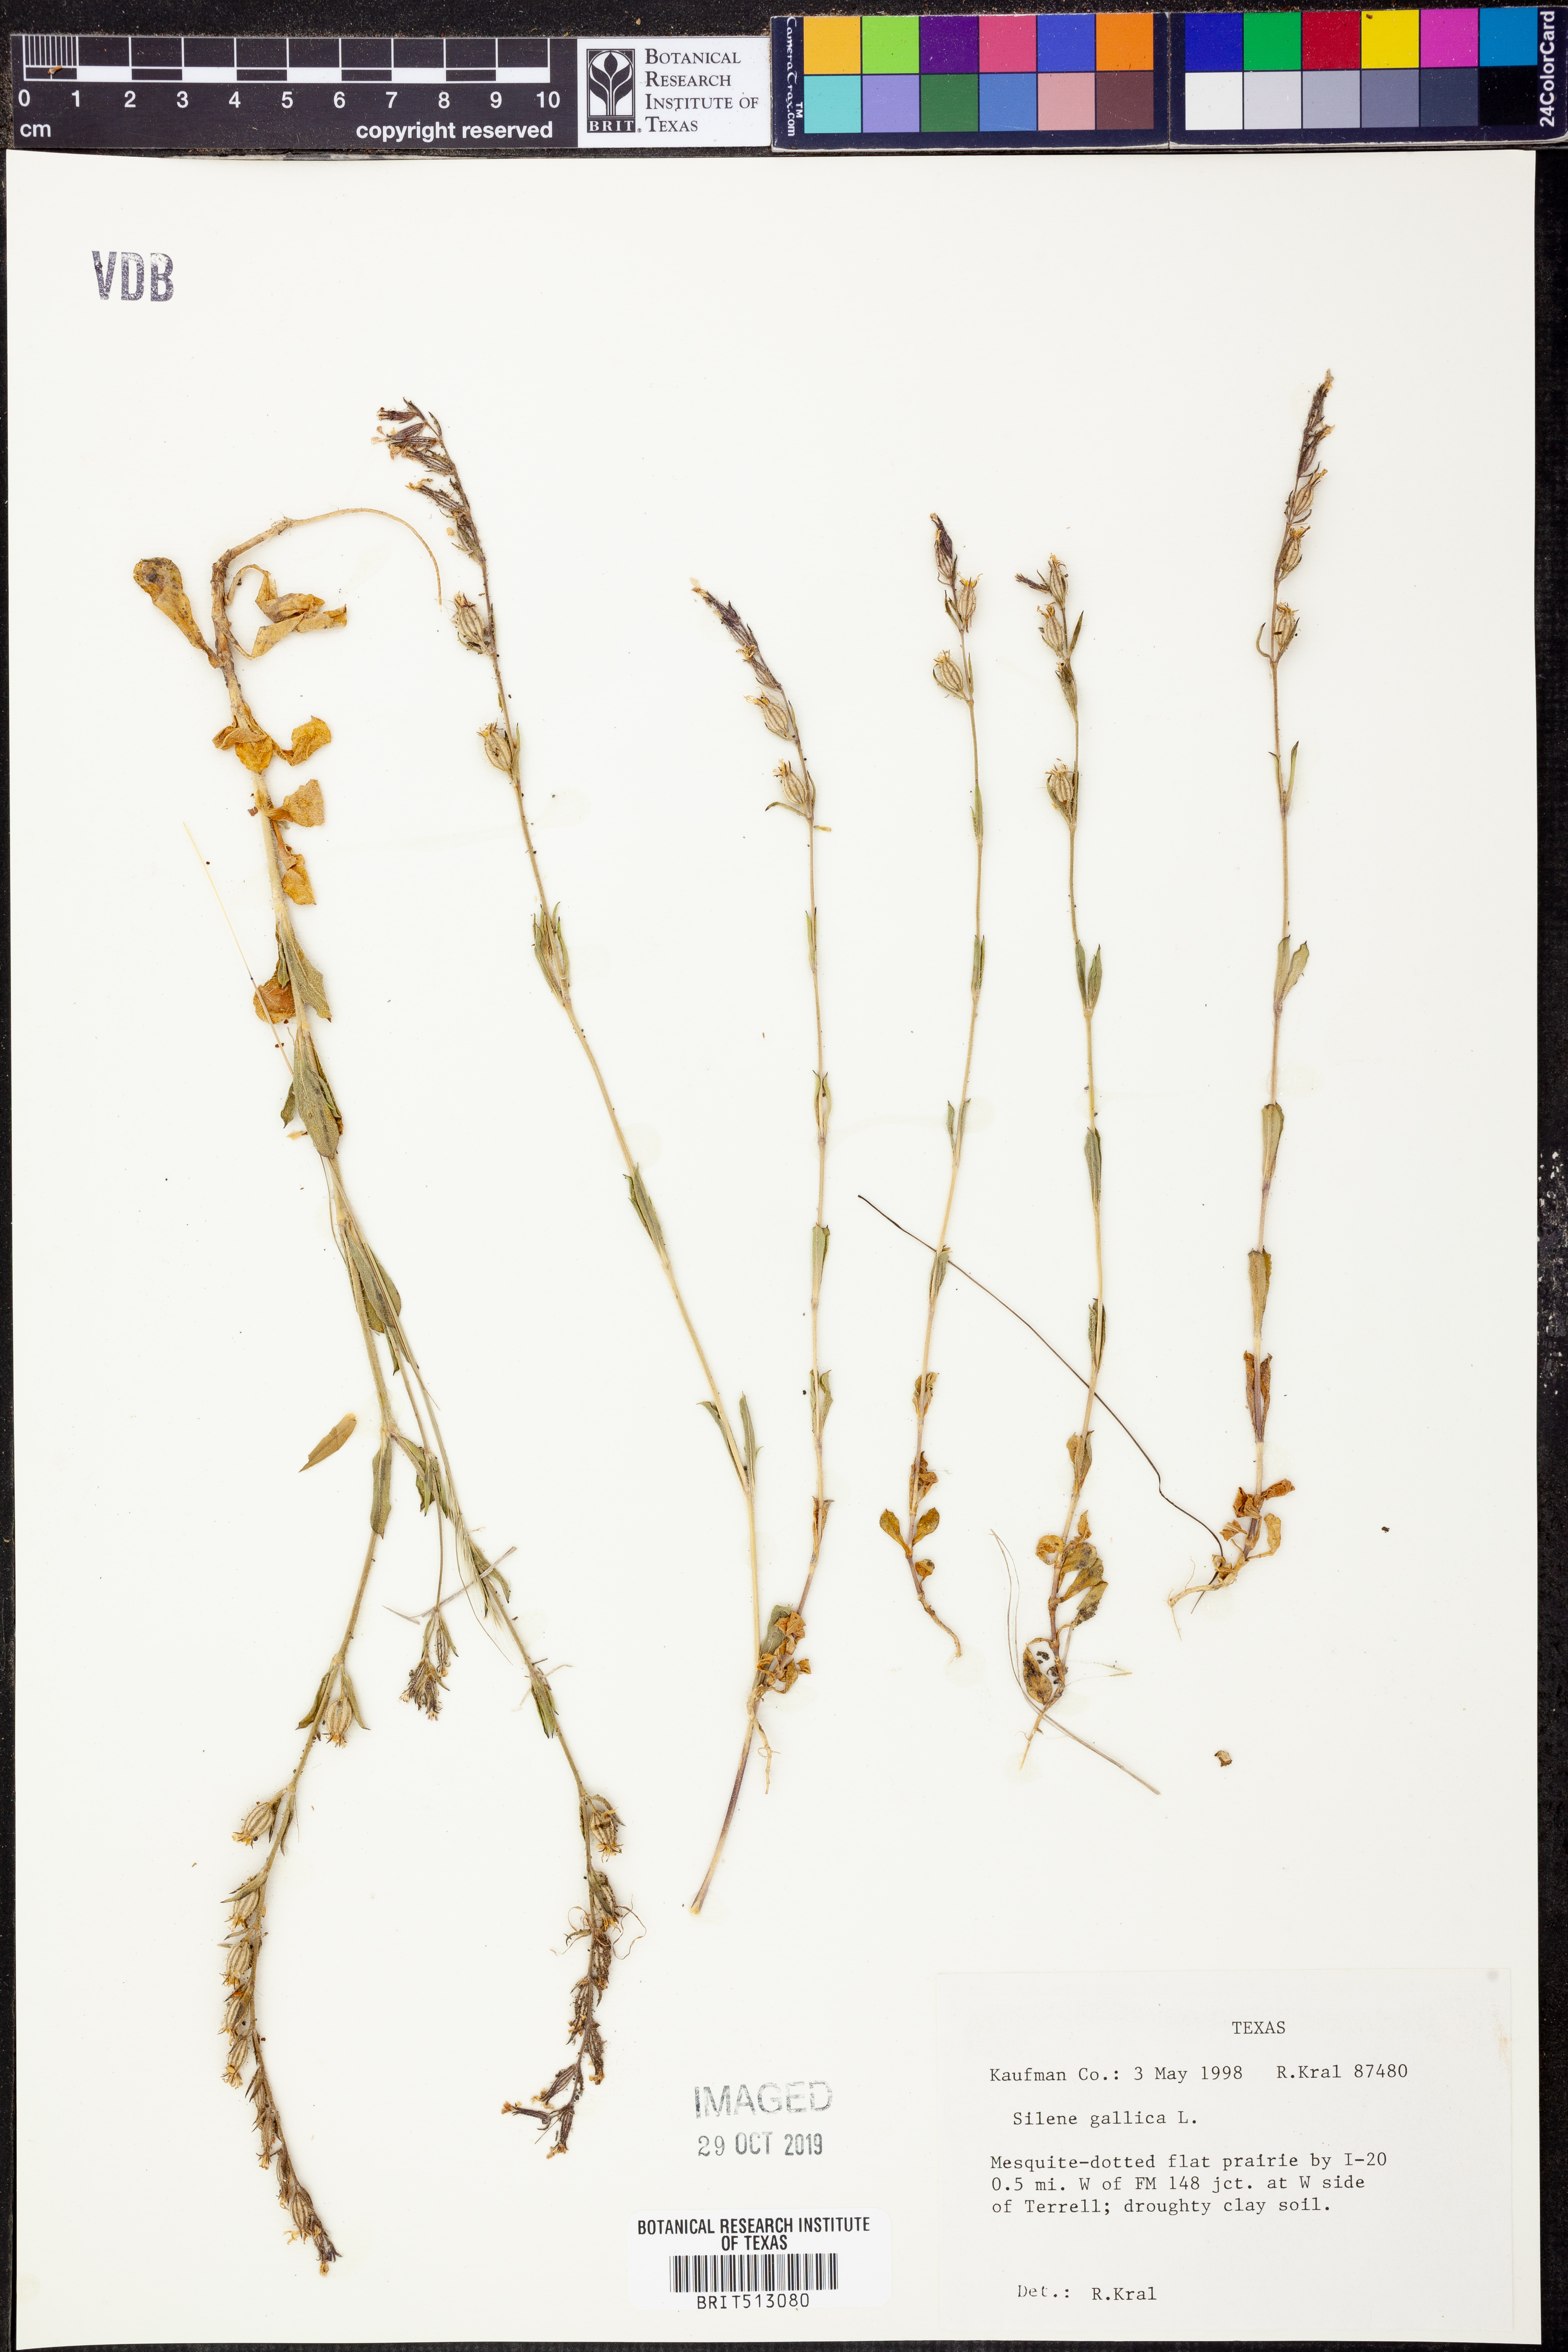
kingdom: Plantae
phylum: Tracheophyta
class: Magnoliopsida
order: Caryophyllales
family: Caryophyllaceae
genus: Silene
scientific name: Silene gallica
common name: Small-flowered catchfly
